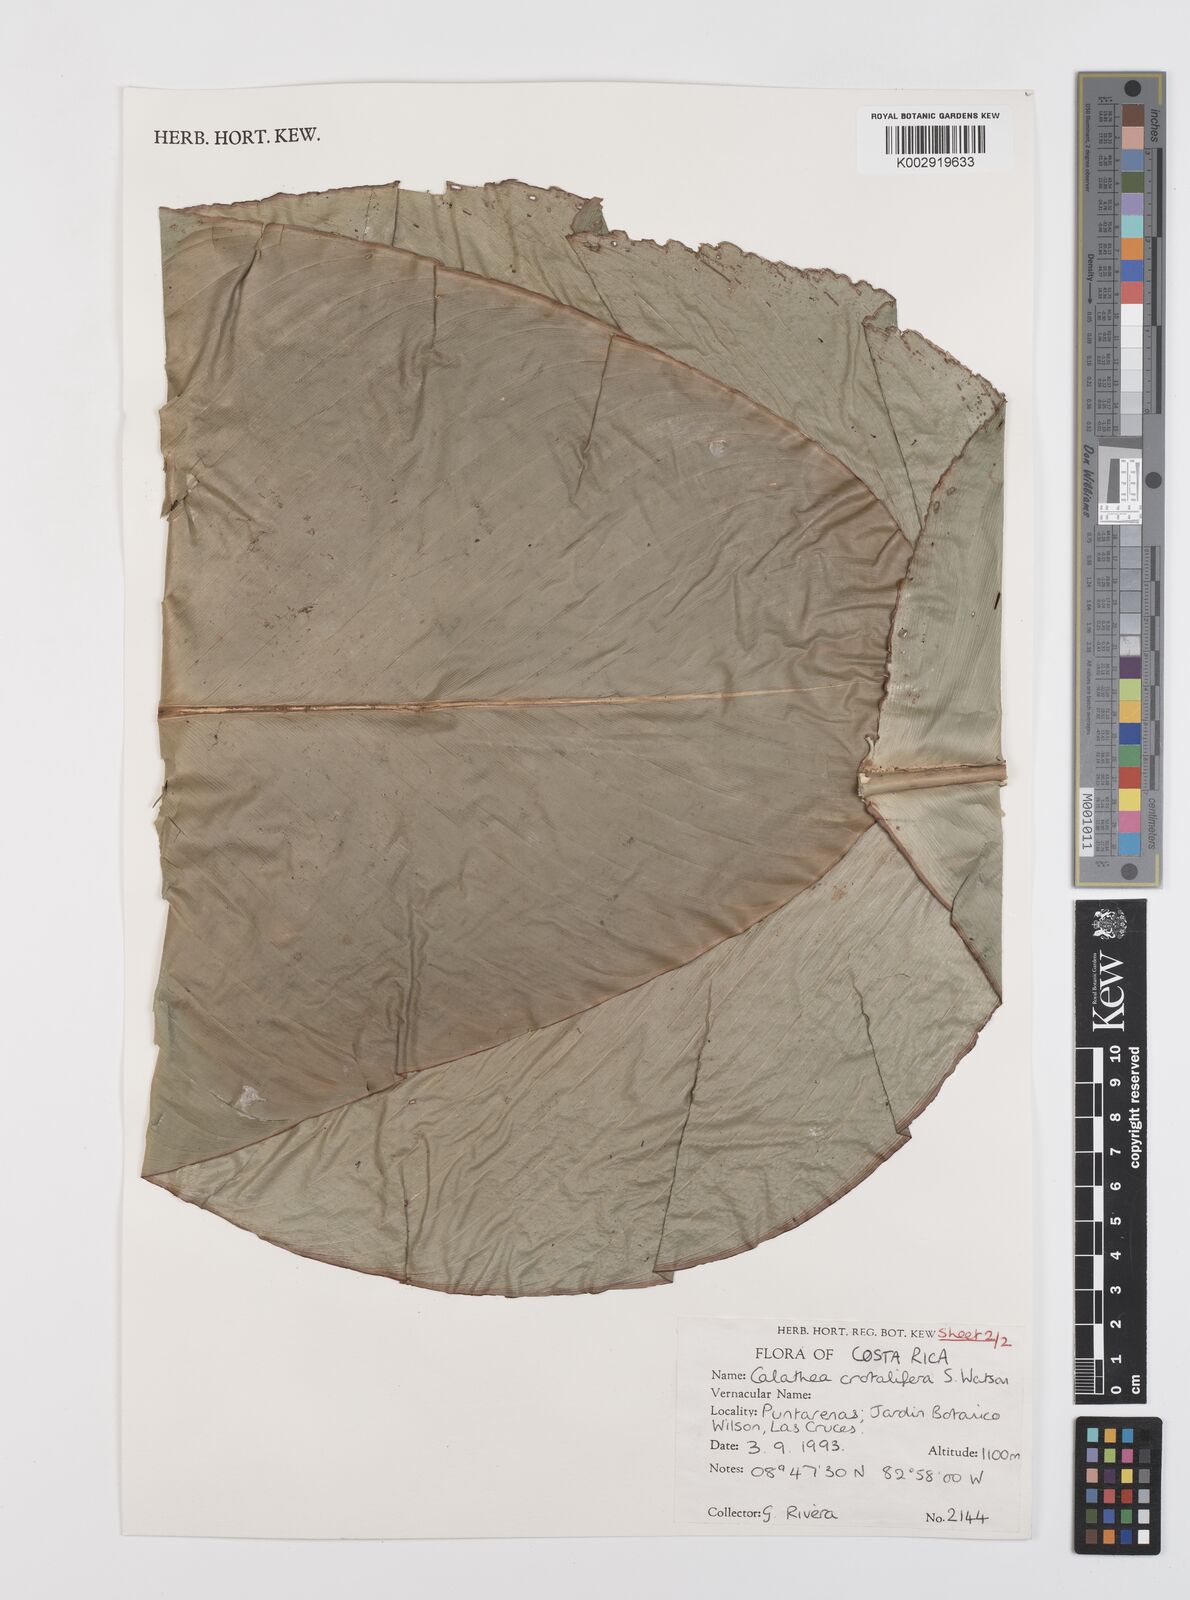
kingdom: Plantae
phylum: Tracheophyta
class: Liliopsida
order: Zingiberales
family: Marantaceae
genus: Calathea
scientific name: Calathea crotalifera
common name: Rattlesnake plant
